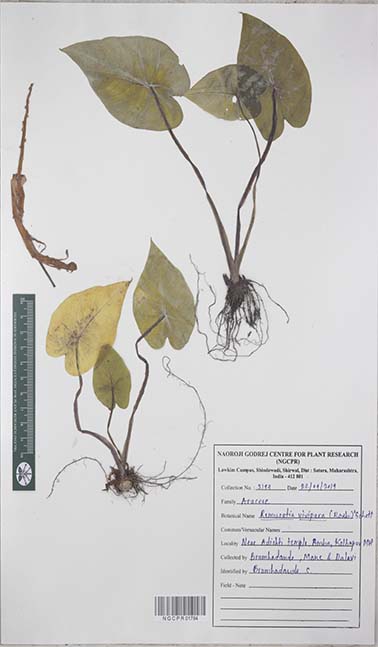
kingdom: Plantae
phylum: Tracheophyta
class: Liliopsida
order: Alismatales
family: Araceae
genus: Remusatia
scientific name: Remusatia vivipara
